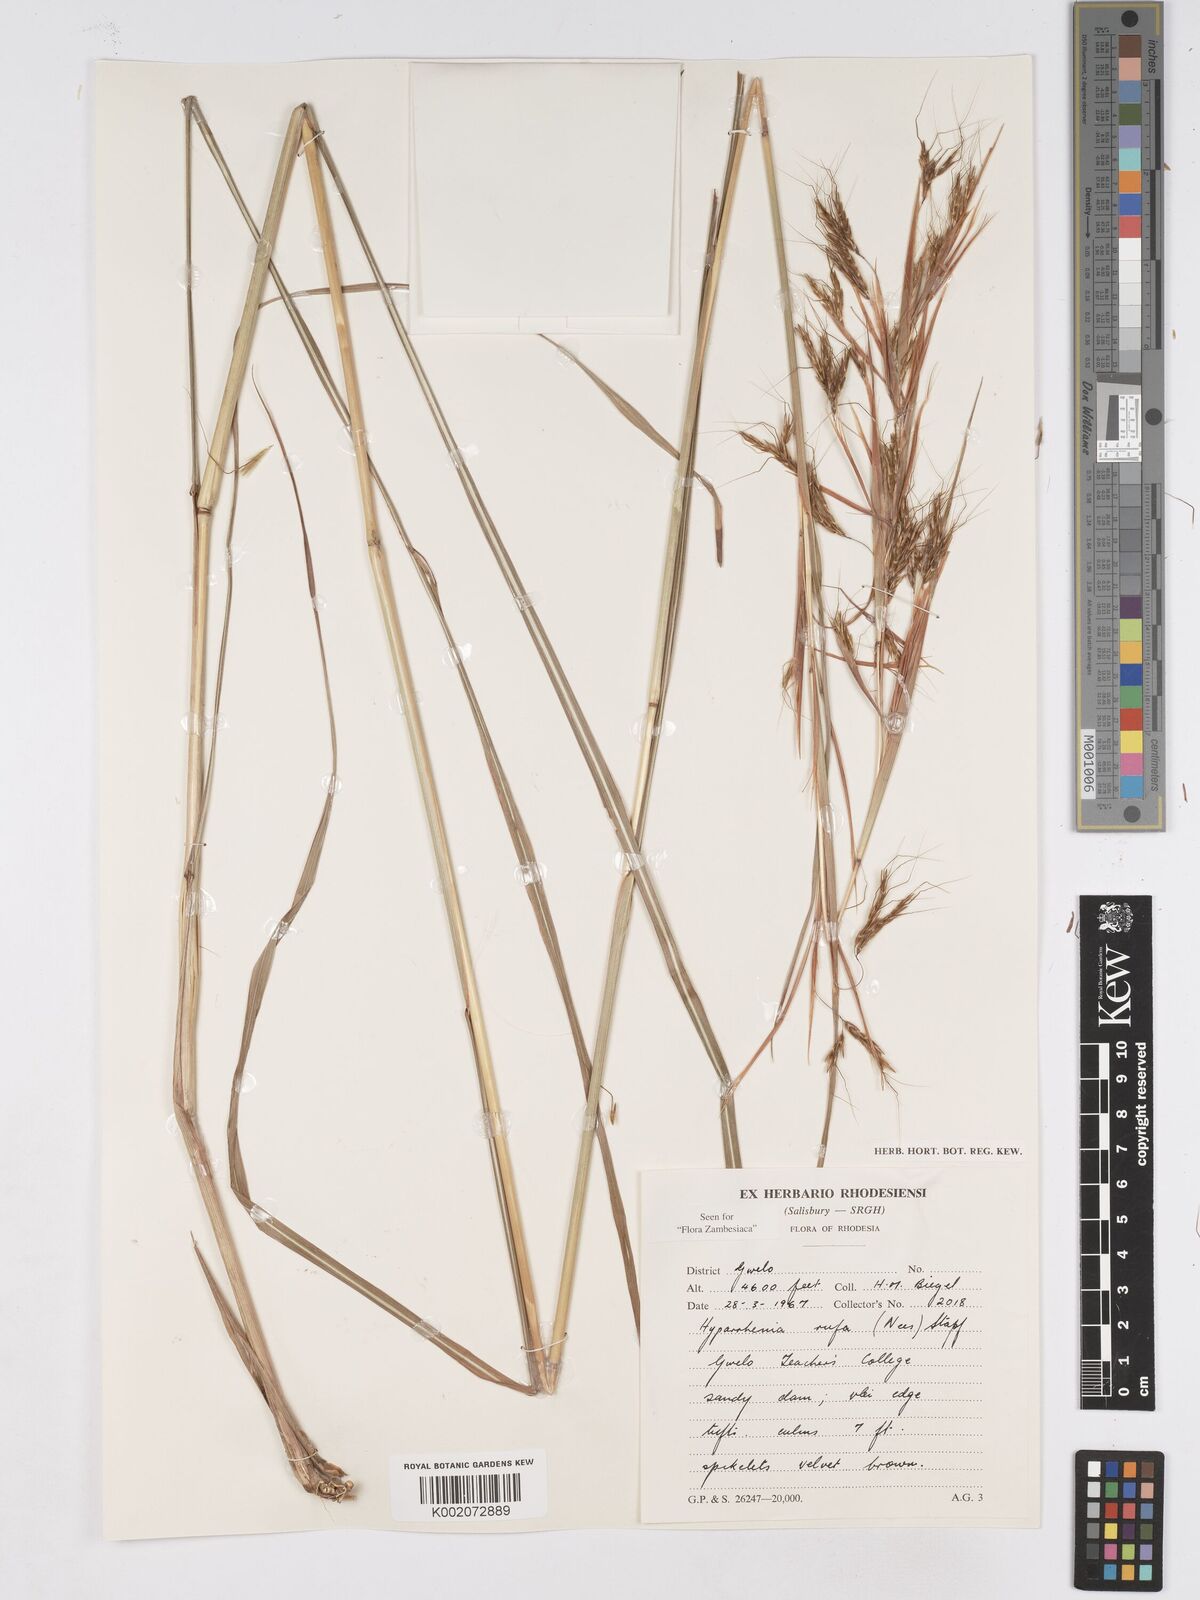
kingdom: Plantae
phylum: Tracheophyta
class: Liliopsida
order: Poales
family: Poaceae
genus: Hyparrhenia
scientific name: Hyparrhenia rufa
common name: Jaraguagrass
